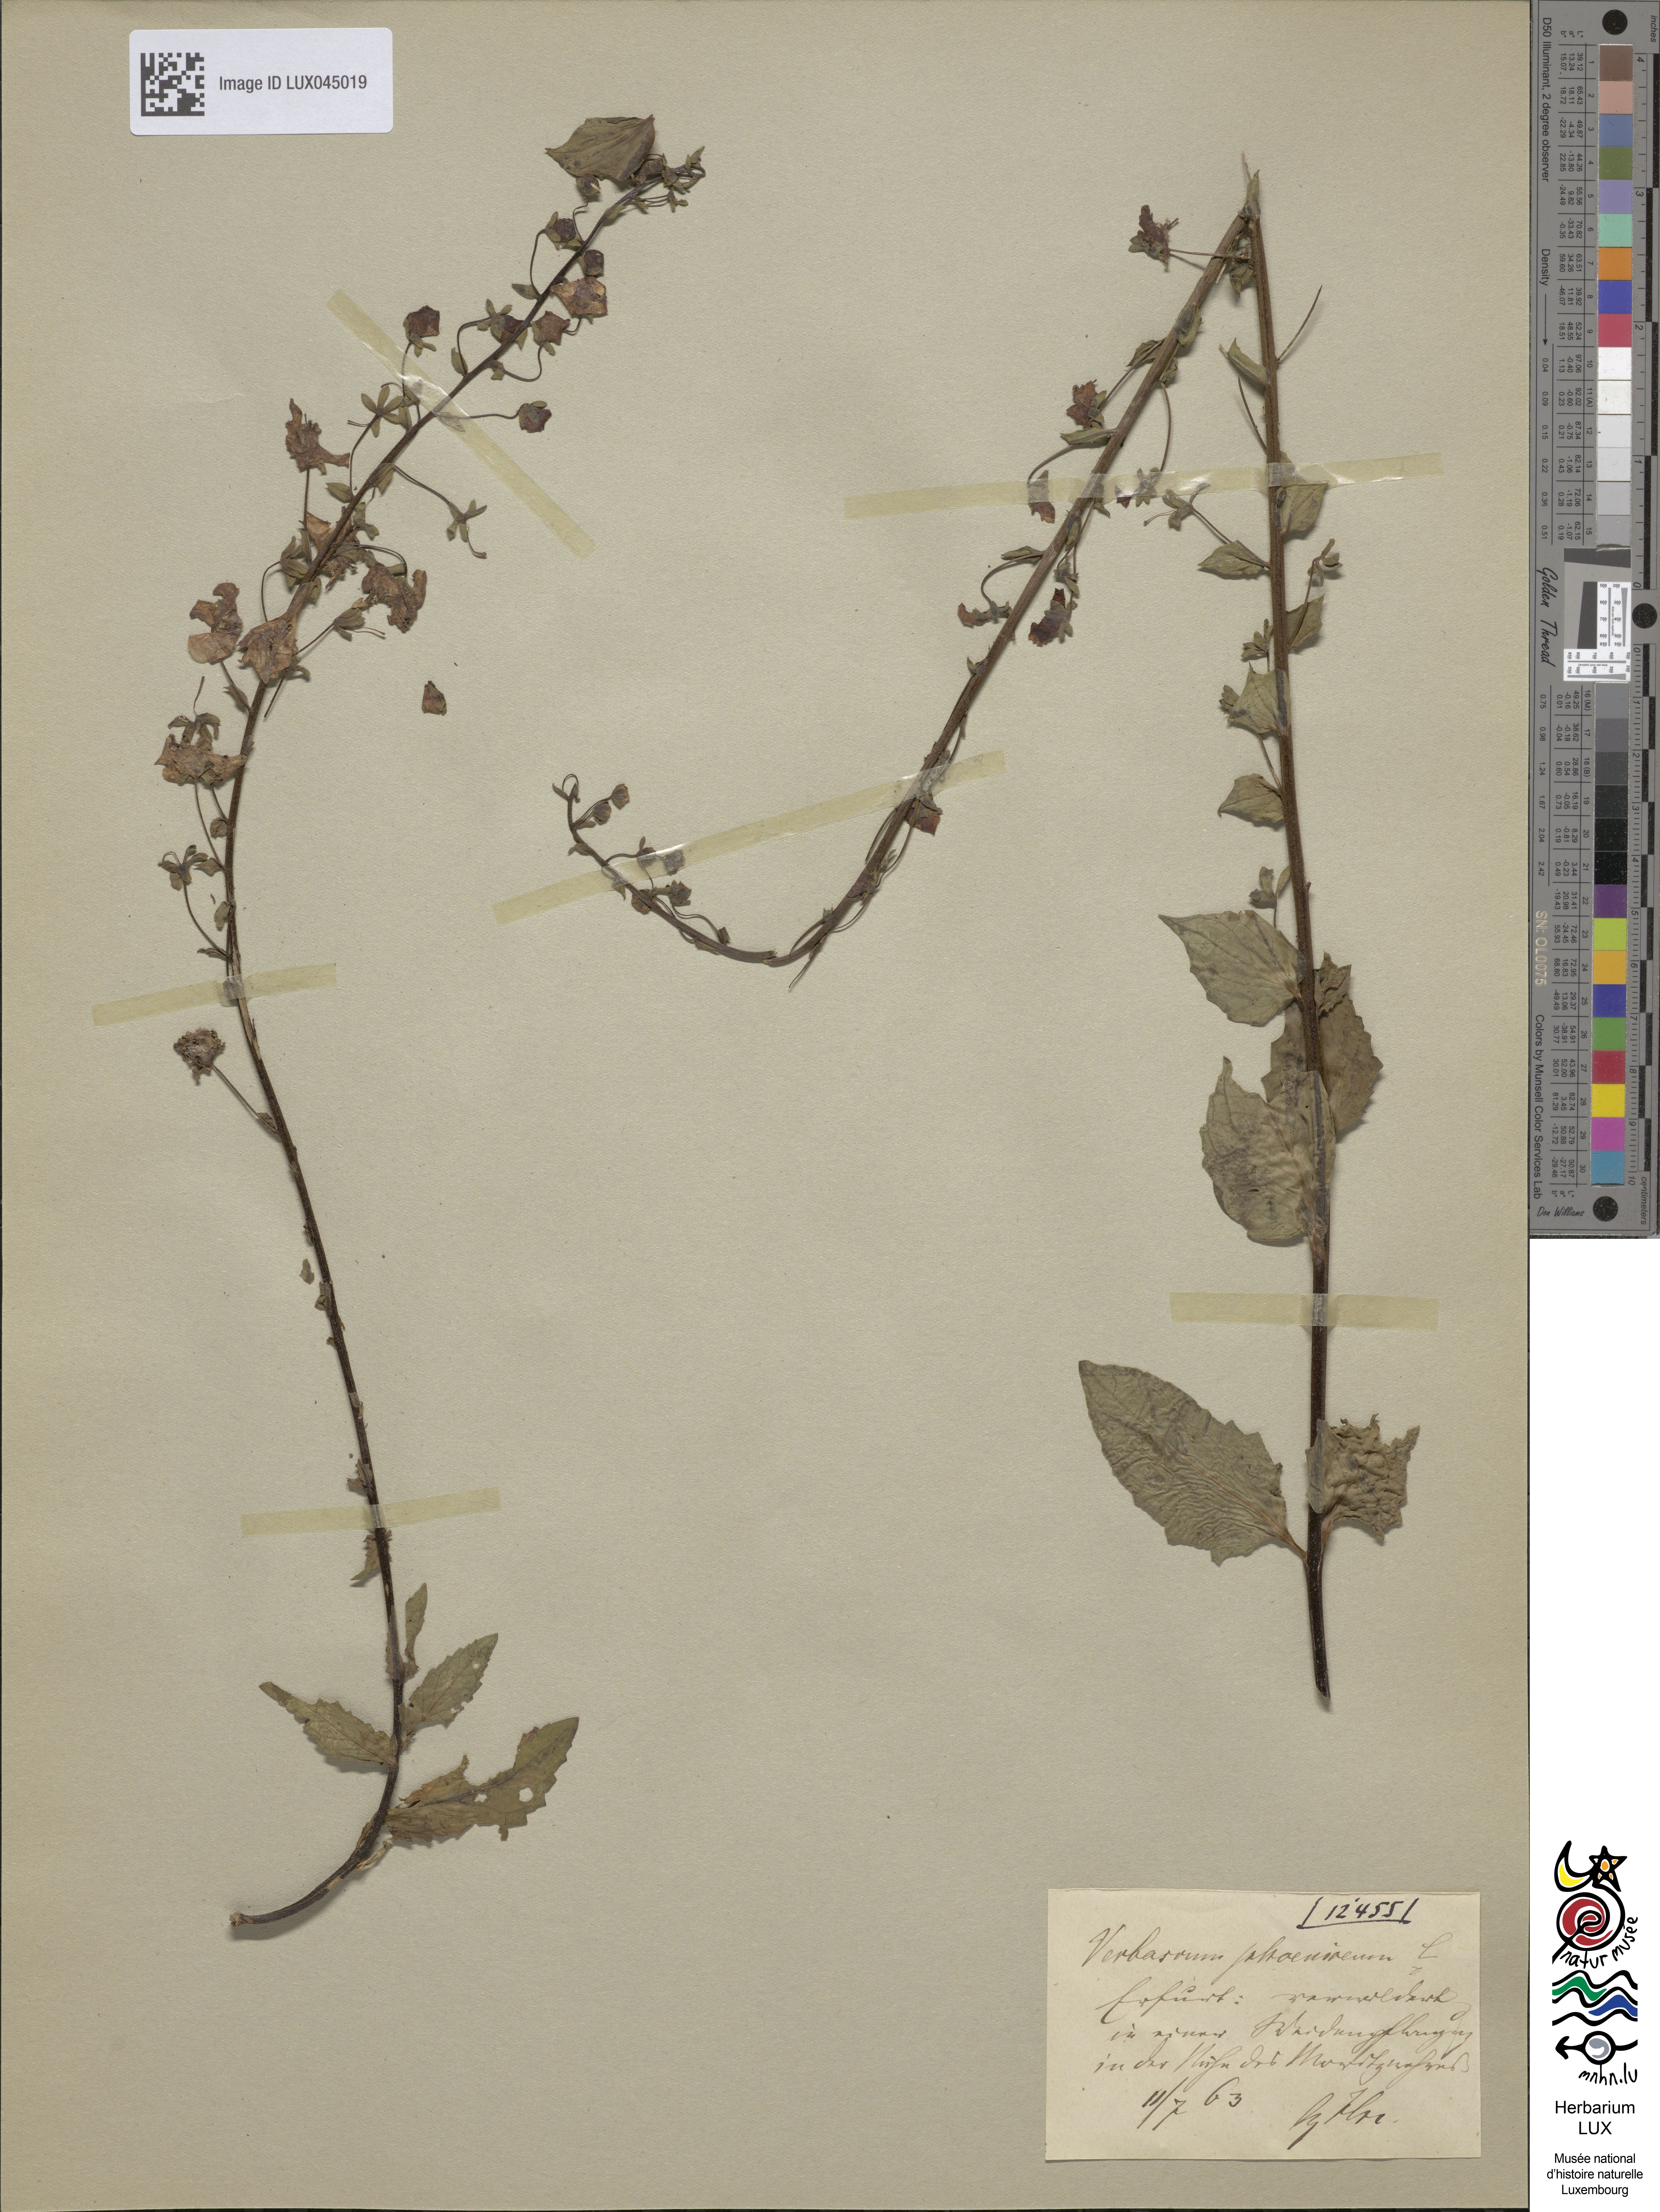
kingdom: Plantae
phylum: Tracheophyta
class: Magnoliopsida
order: Lamiales
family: Scrophulariaceae
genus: Verbascum
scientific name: Verbascum phoeniceum
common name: Purple mullein
